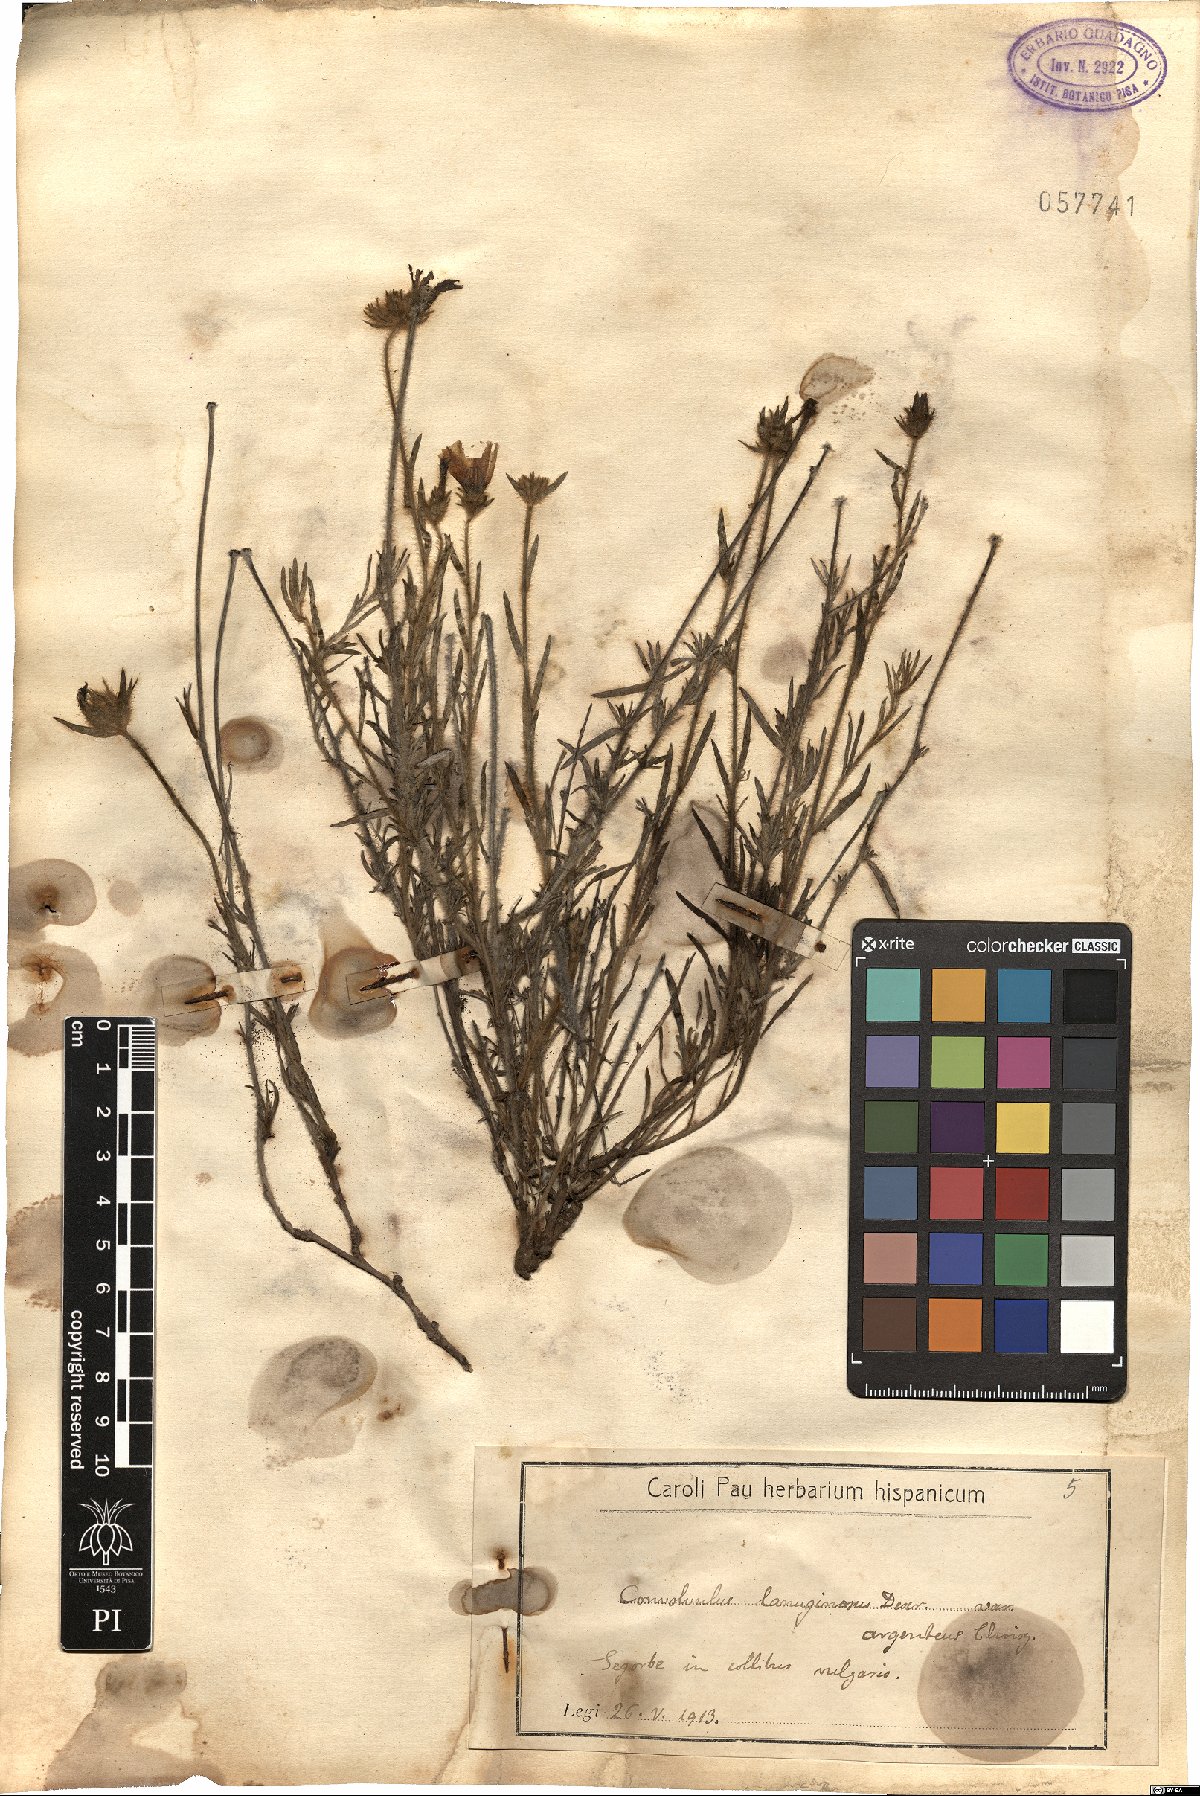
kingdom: Plantae
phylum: Tracheophyta
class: Magnoliopsida
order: Solanales
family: Convolvulaceae
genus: Convolvulus
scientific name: Convolvulus lanuginosus
